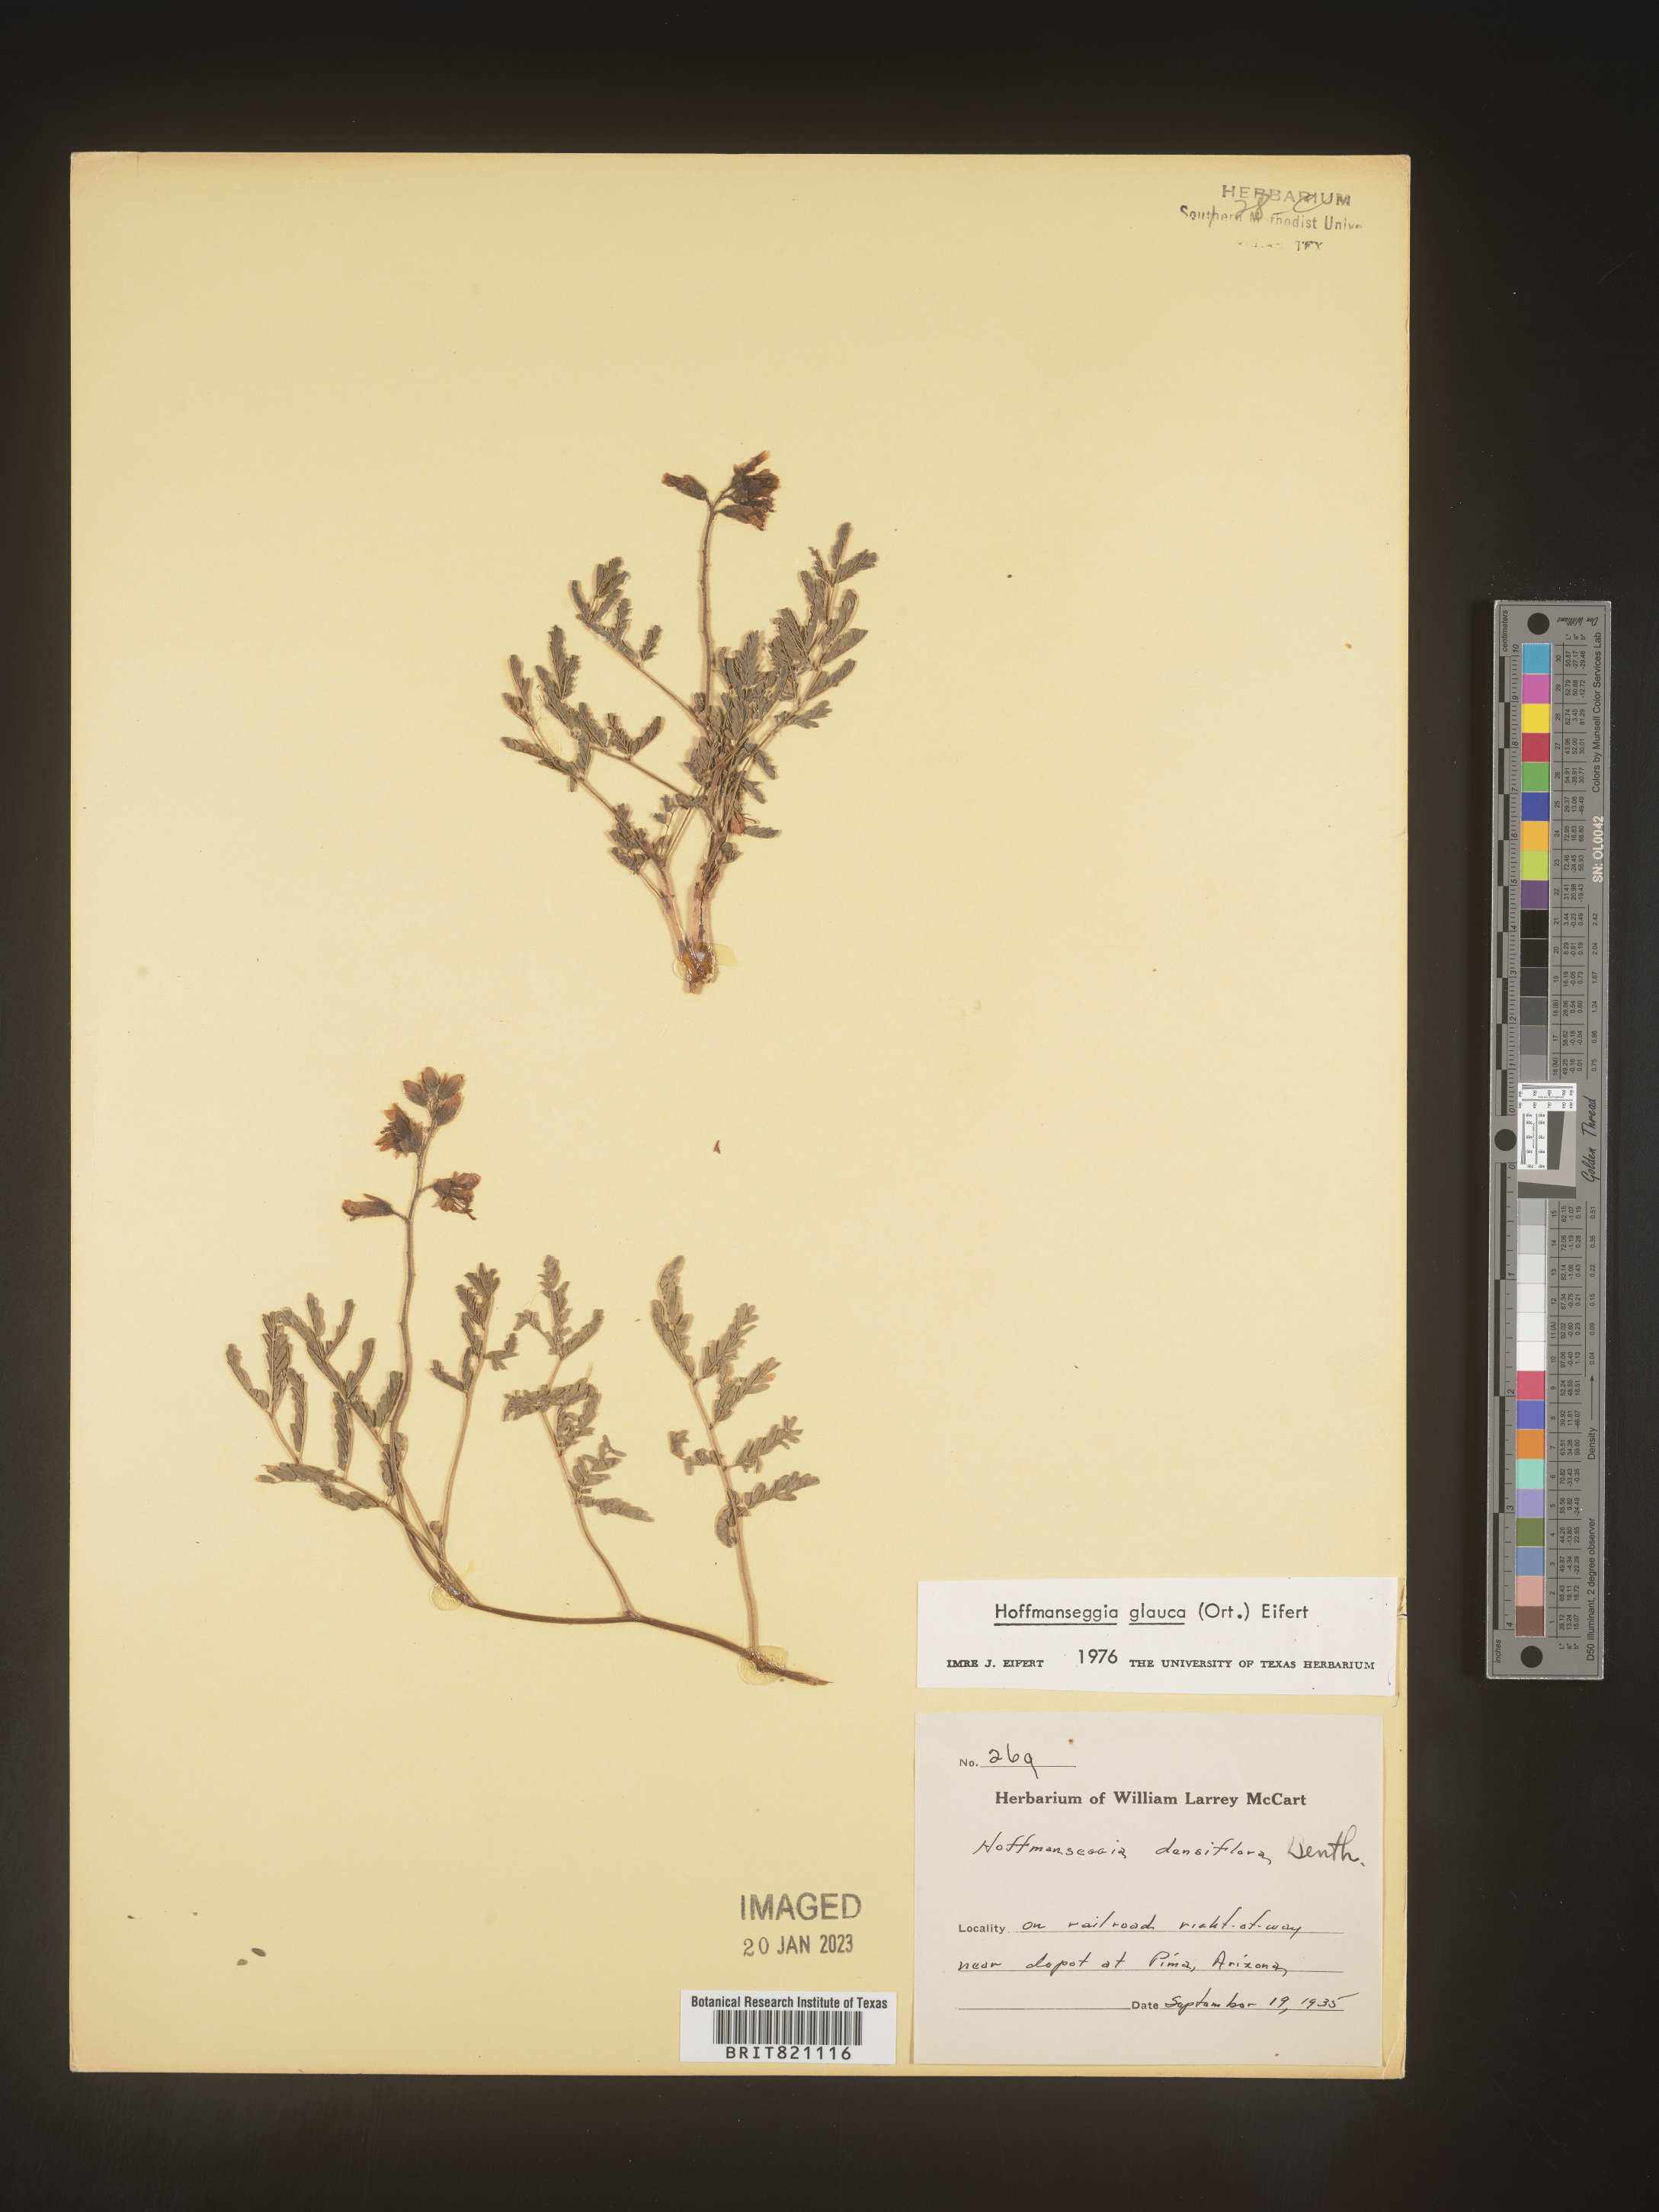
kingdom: Plantae
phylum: Tracheophyta
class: Magnoliopsida
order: Fabales
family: Fabaceae
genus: Hoffmannseggia
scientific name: Hoffmannseggia
